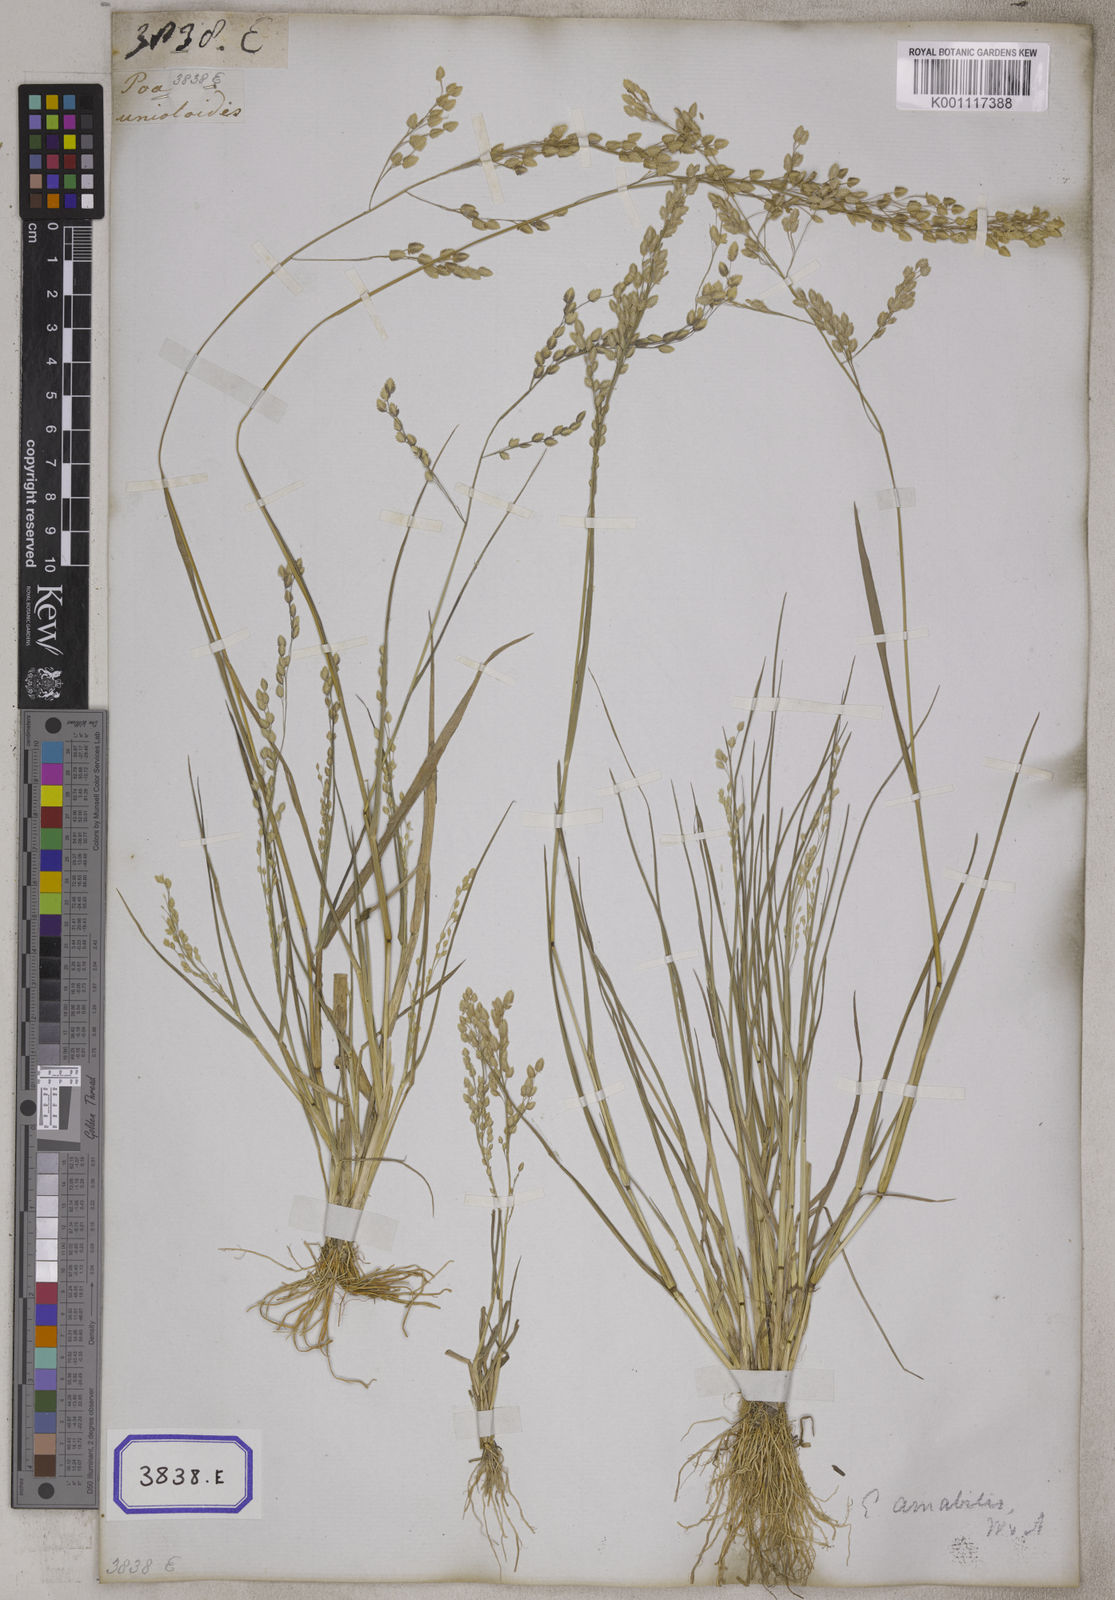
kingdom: Plantae
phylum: Tracheophyta
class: Liliopsida
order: Poales
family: Poaceae
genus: Eragrostis
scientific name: Eragrostis
